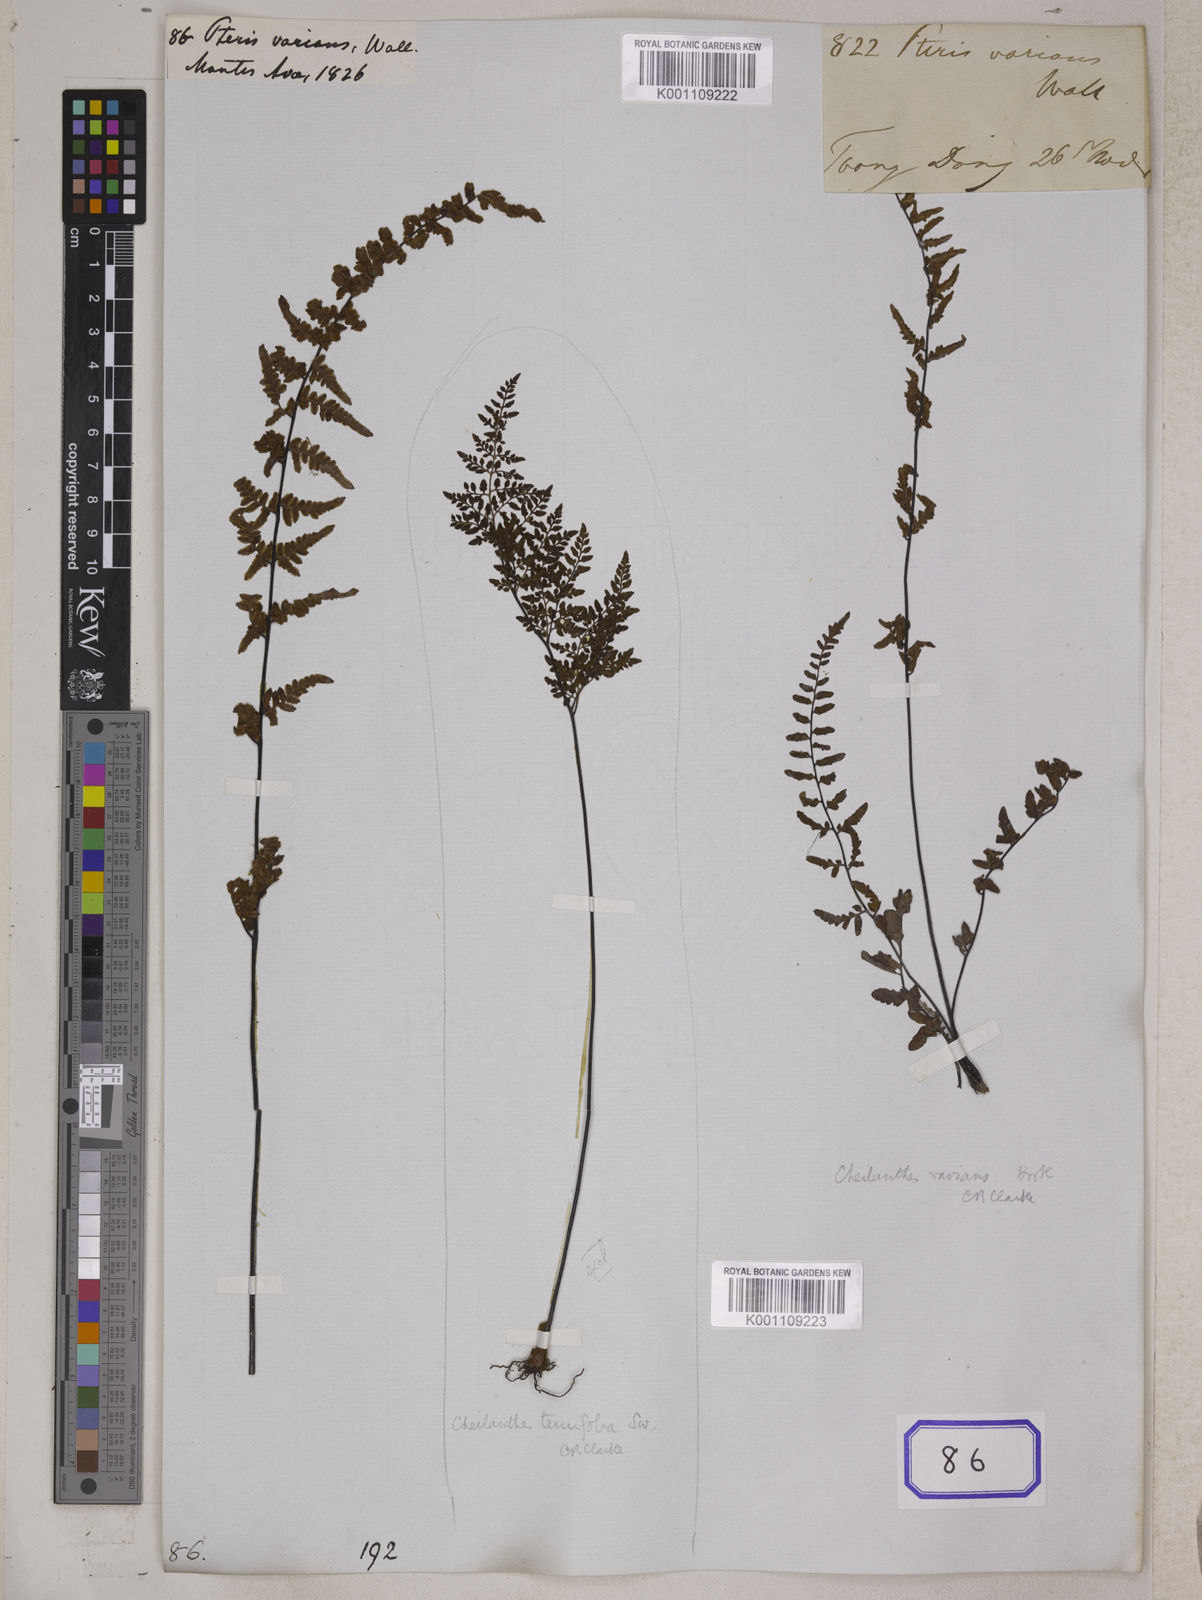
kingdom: Plantae
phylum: Tracheophyta
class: Polypodiopsida
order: Polypodiales
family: Pteridaceae
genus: Oeosporangium
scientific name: Oeosporangium belangeri
